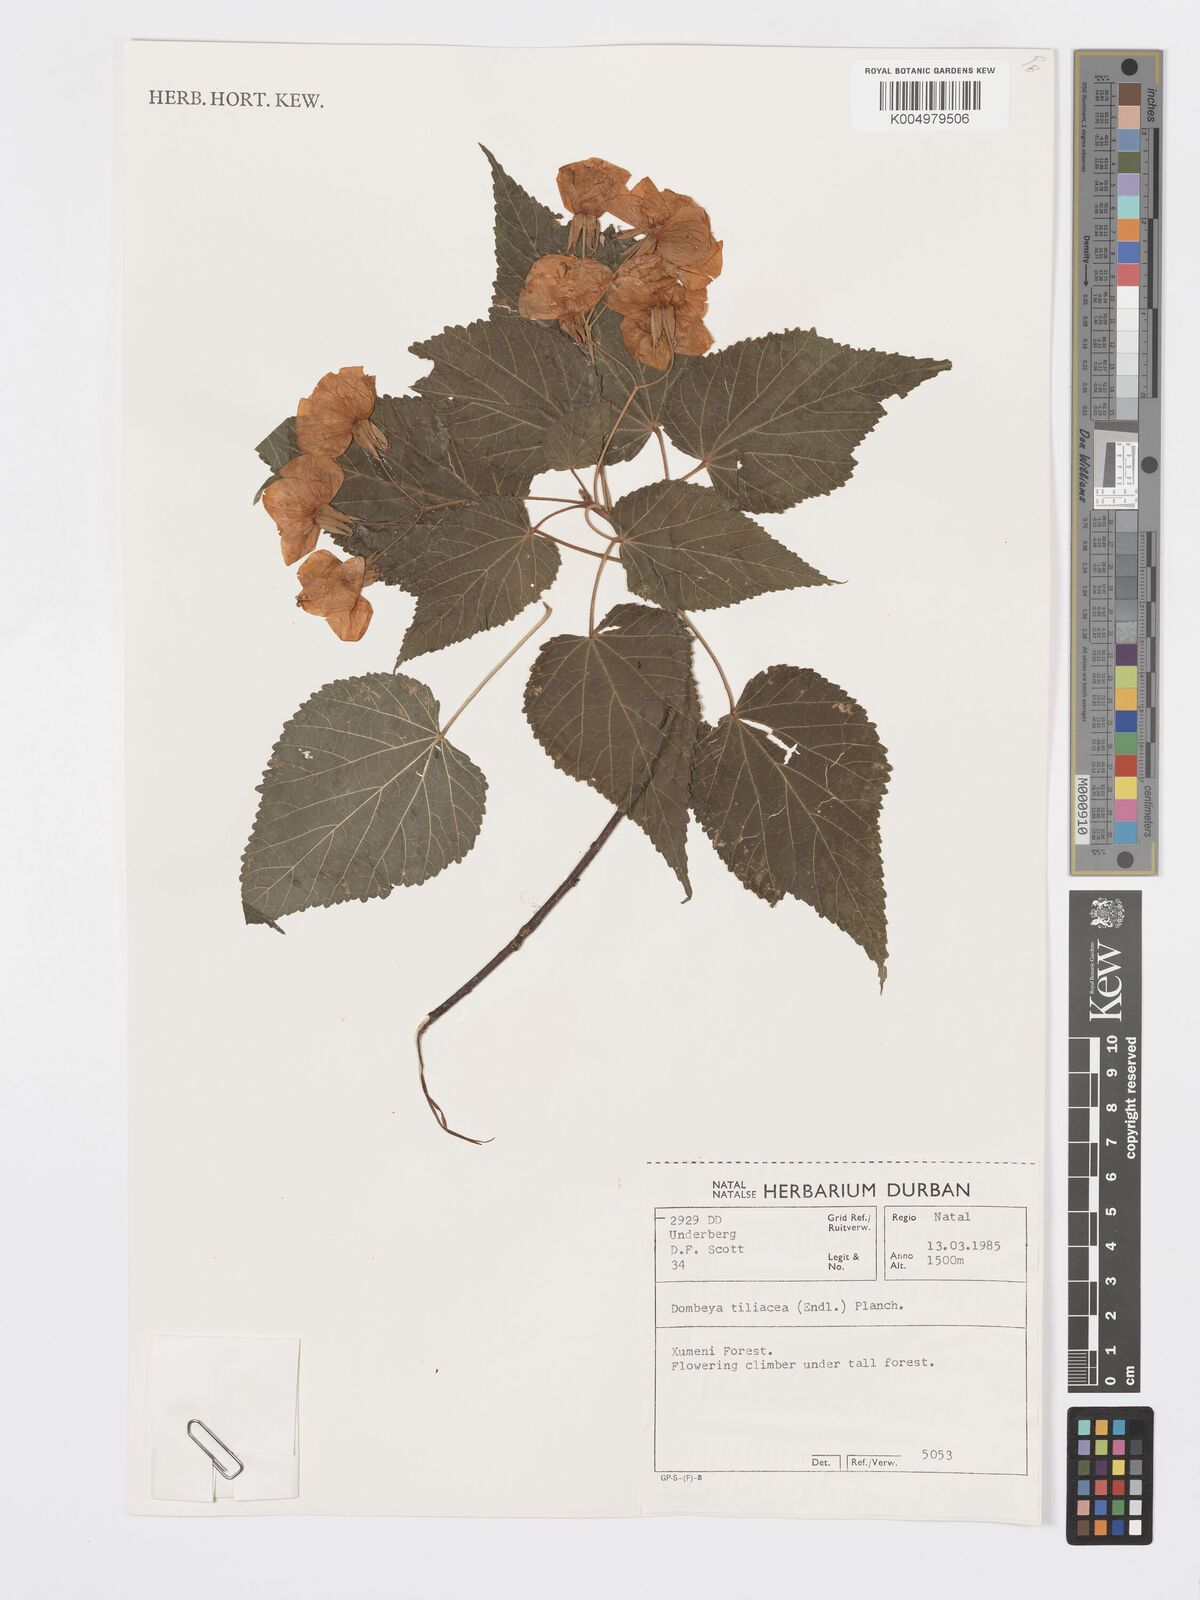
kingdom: Plantae
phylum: Tracheophyta
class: Magnoliopsida
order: Malvales
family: Malvaceae
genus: Dombeya
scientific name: Dombeya tiliacea
